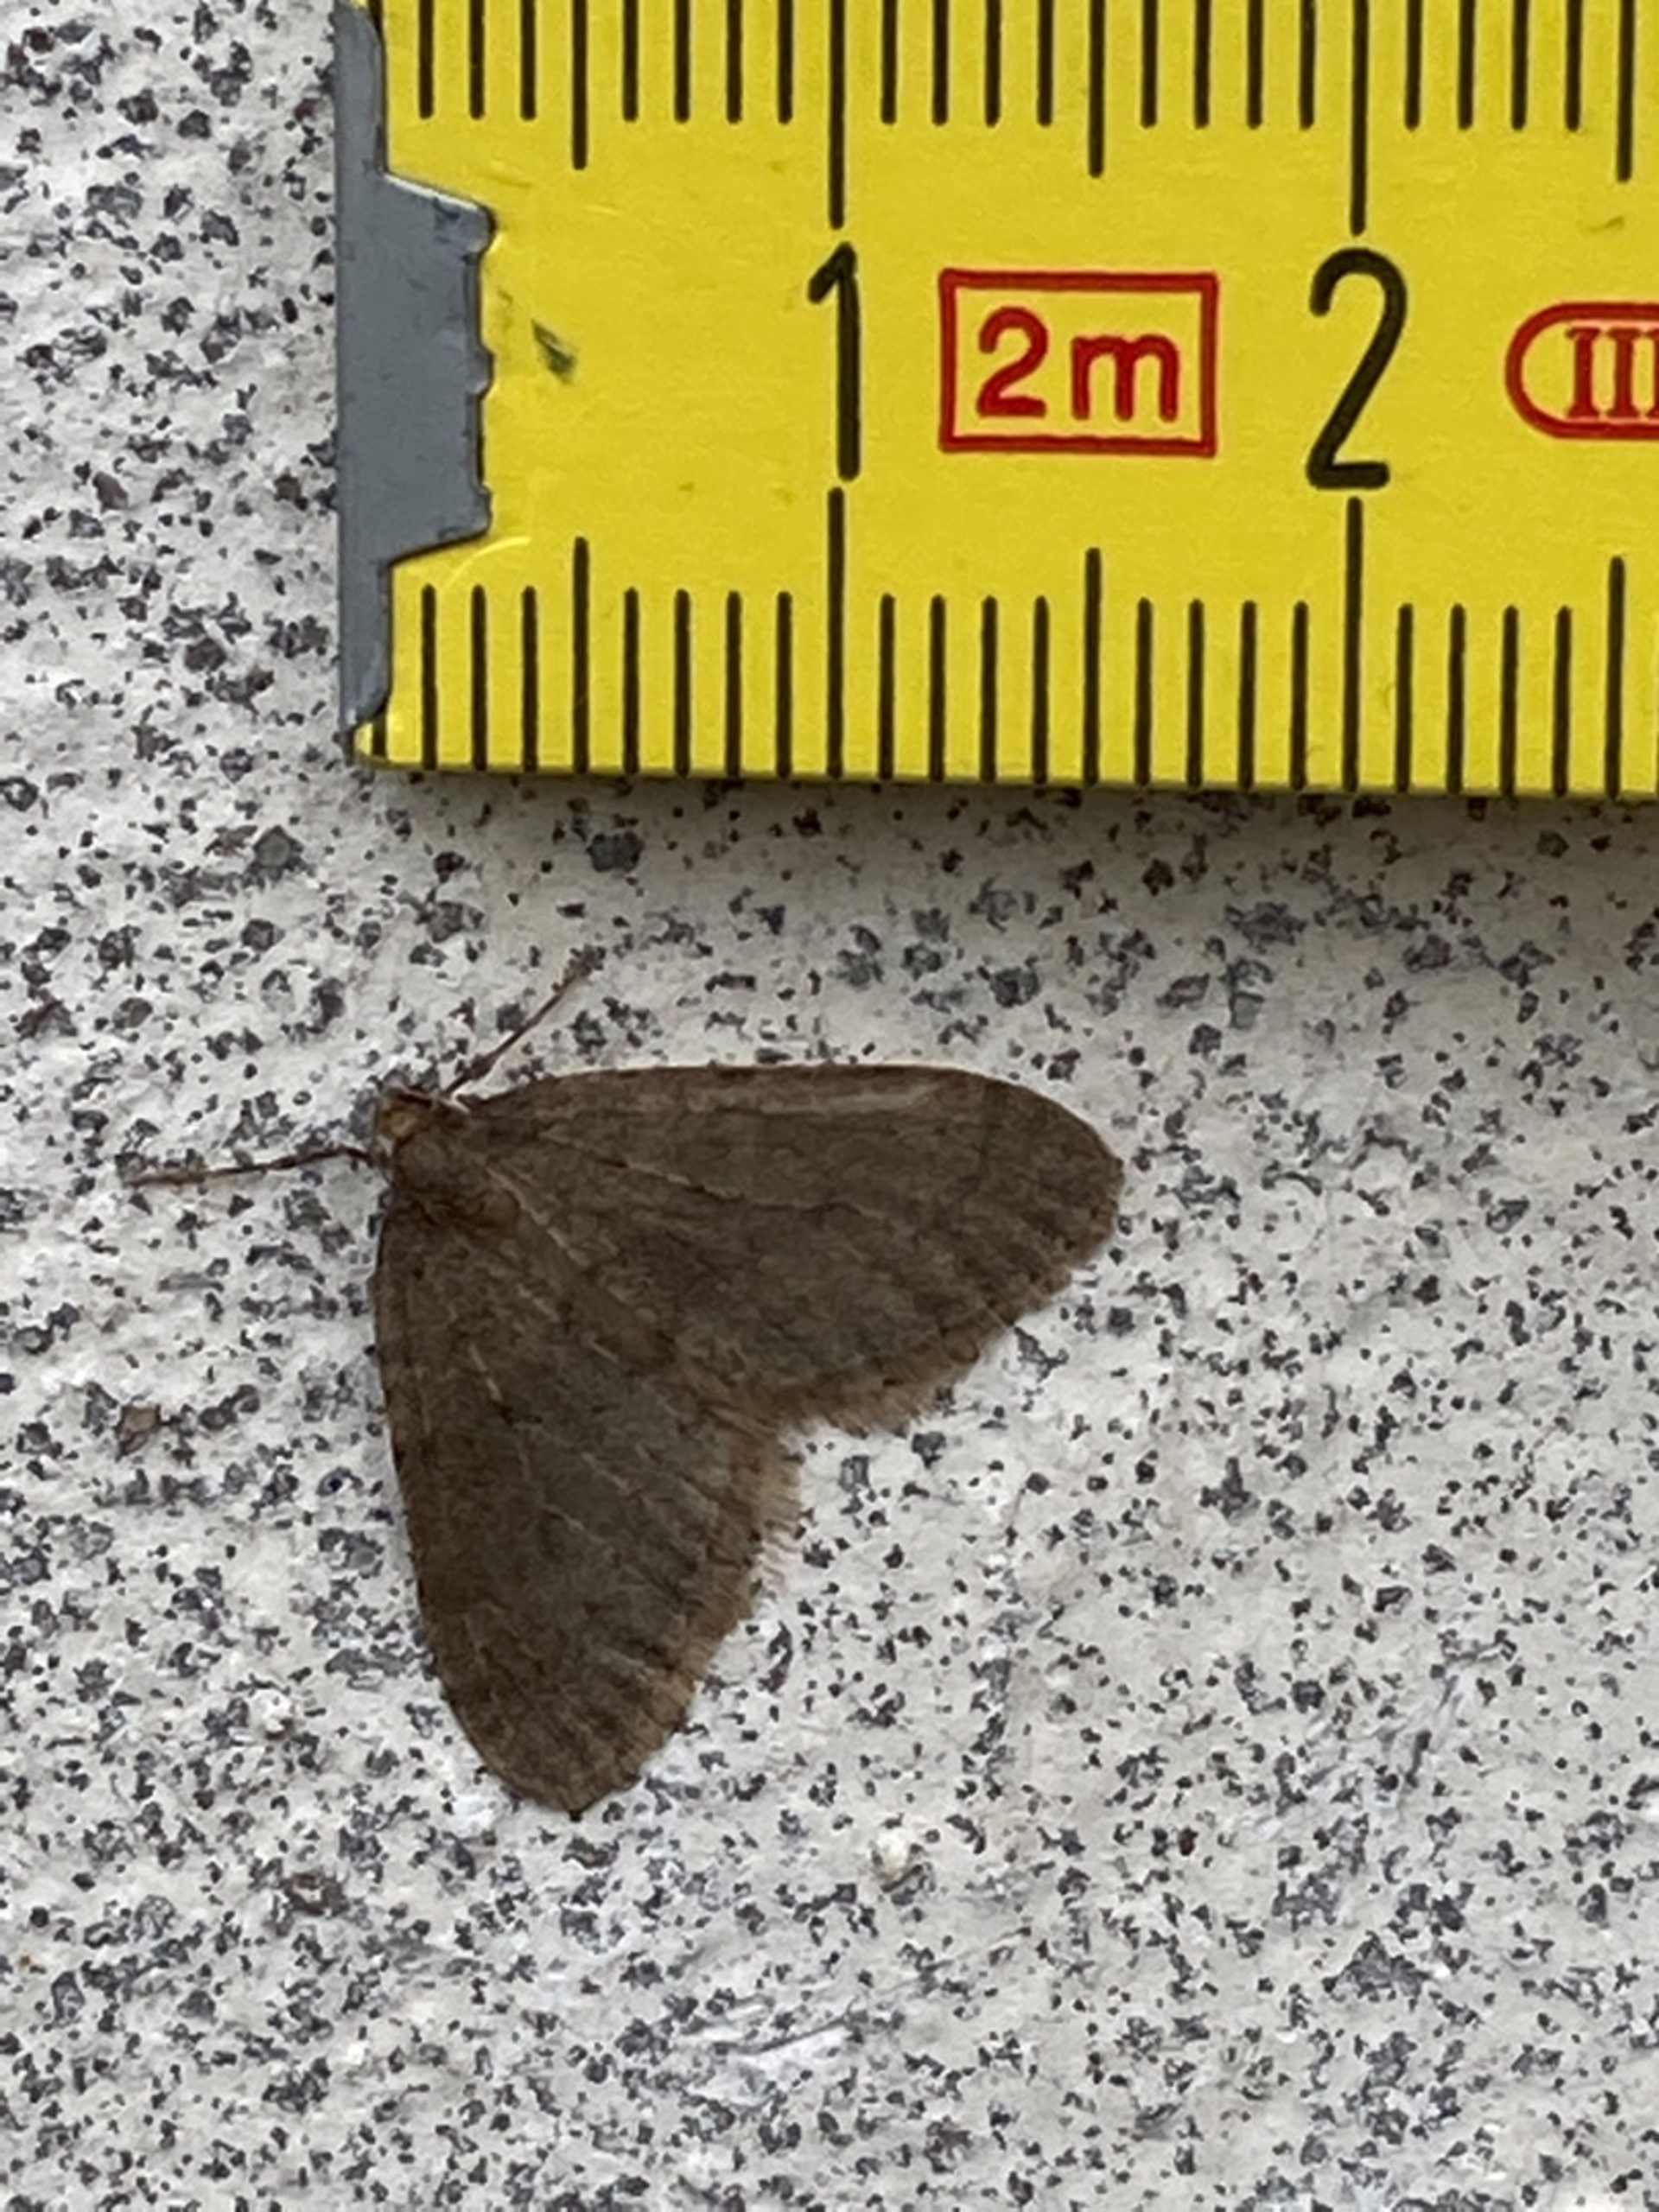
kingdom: Animalia
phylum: Arthropoda
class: Insecta
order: Lepidoptera
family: Geometridae
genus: Operophtera
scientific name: Operophtera brumata
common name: Lille frostmåler
